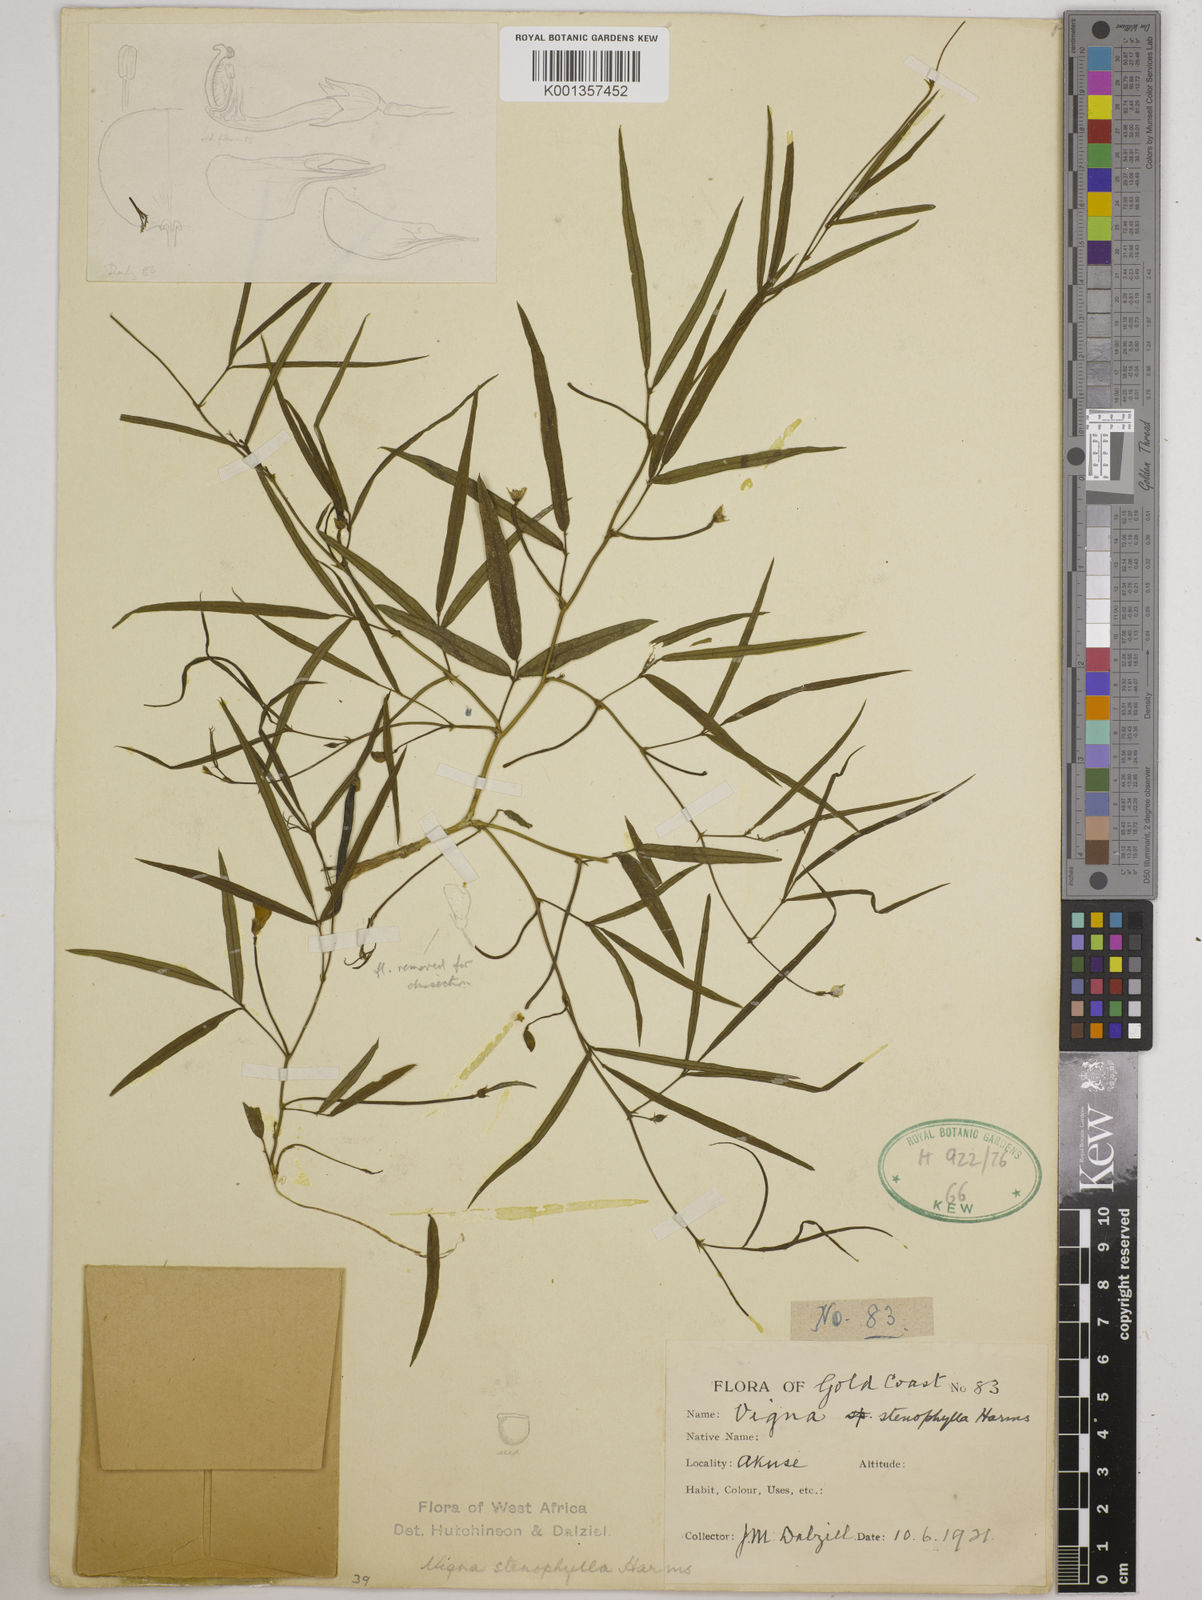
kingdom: Plantae
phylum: Tracheophyta
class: Magnoliopsida
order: Fabales
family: Fabaceae
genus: Vigna
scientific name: Vigna
